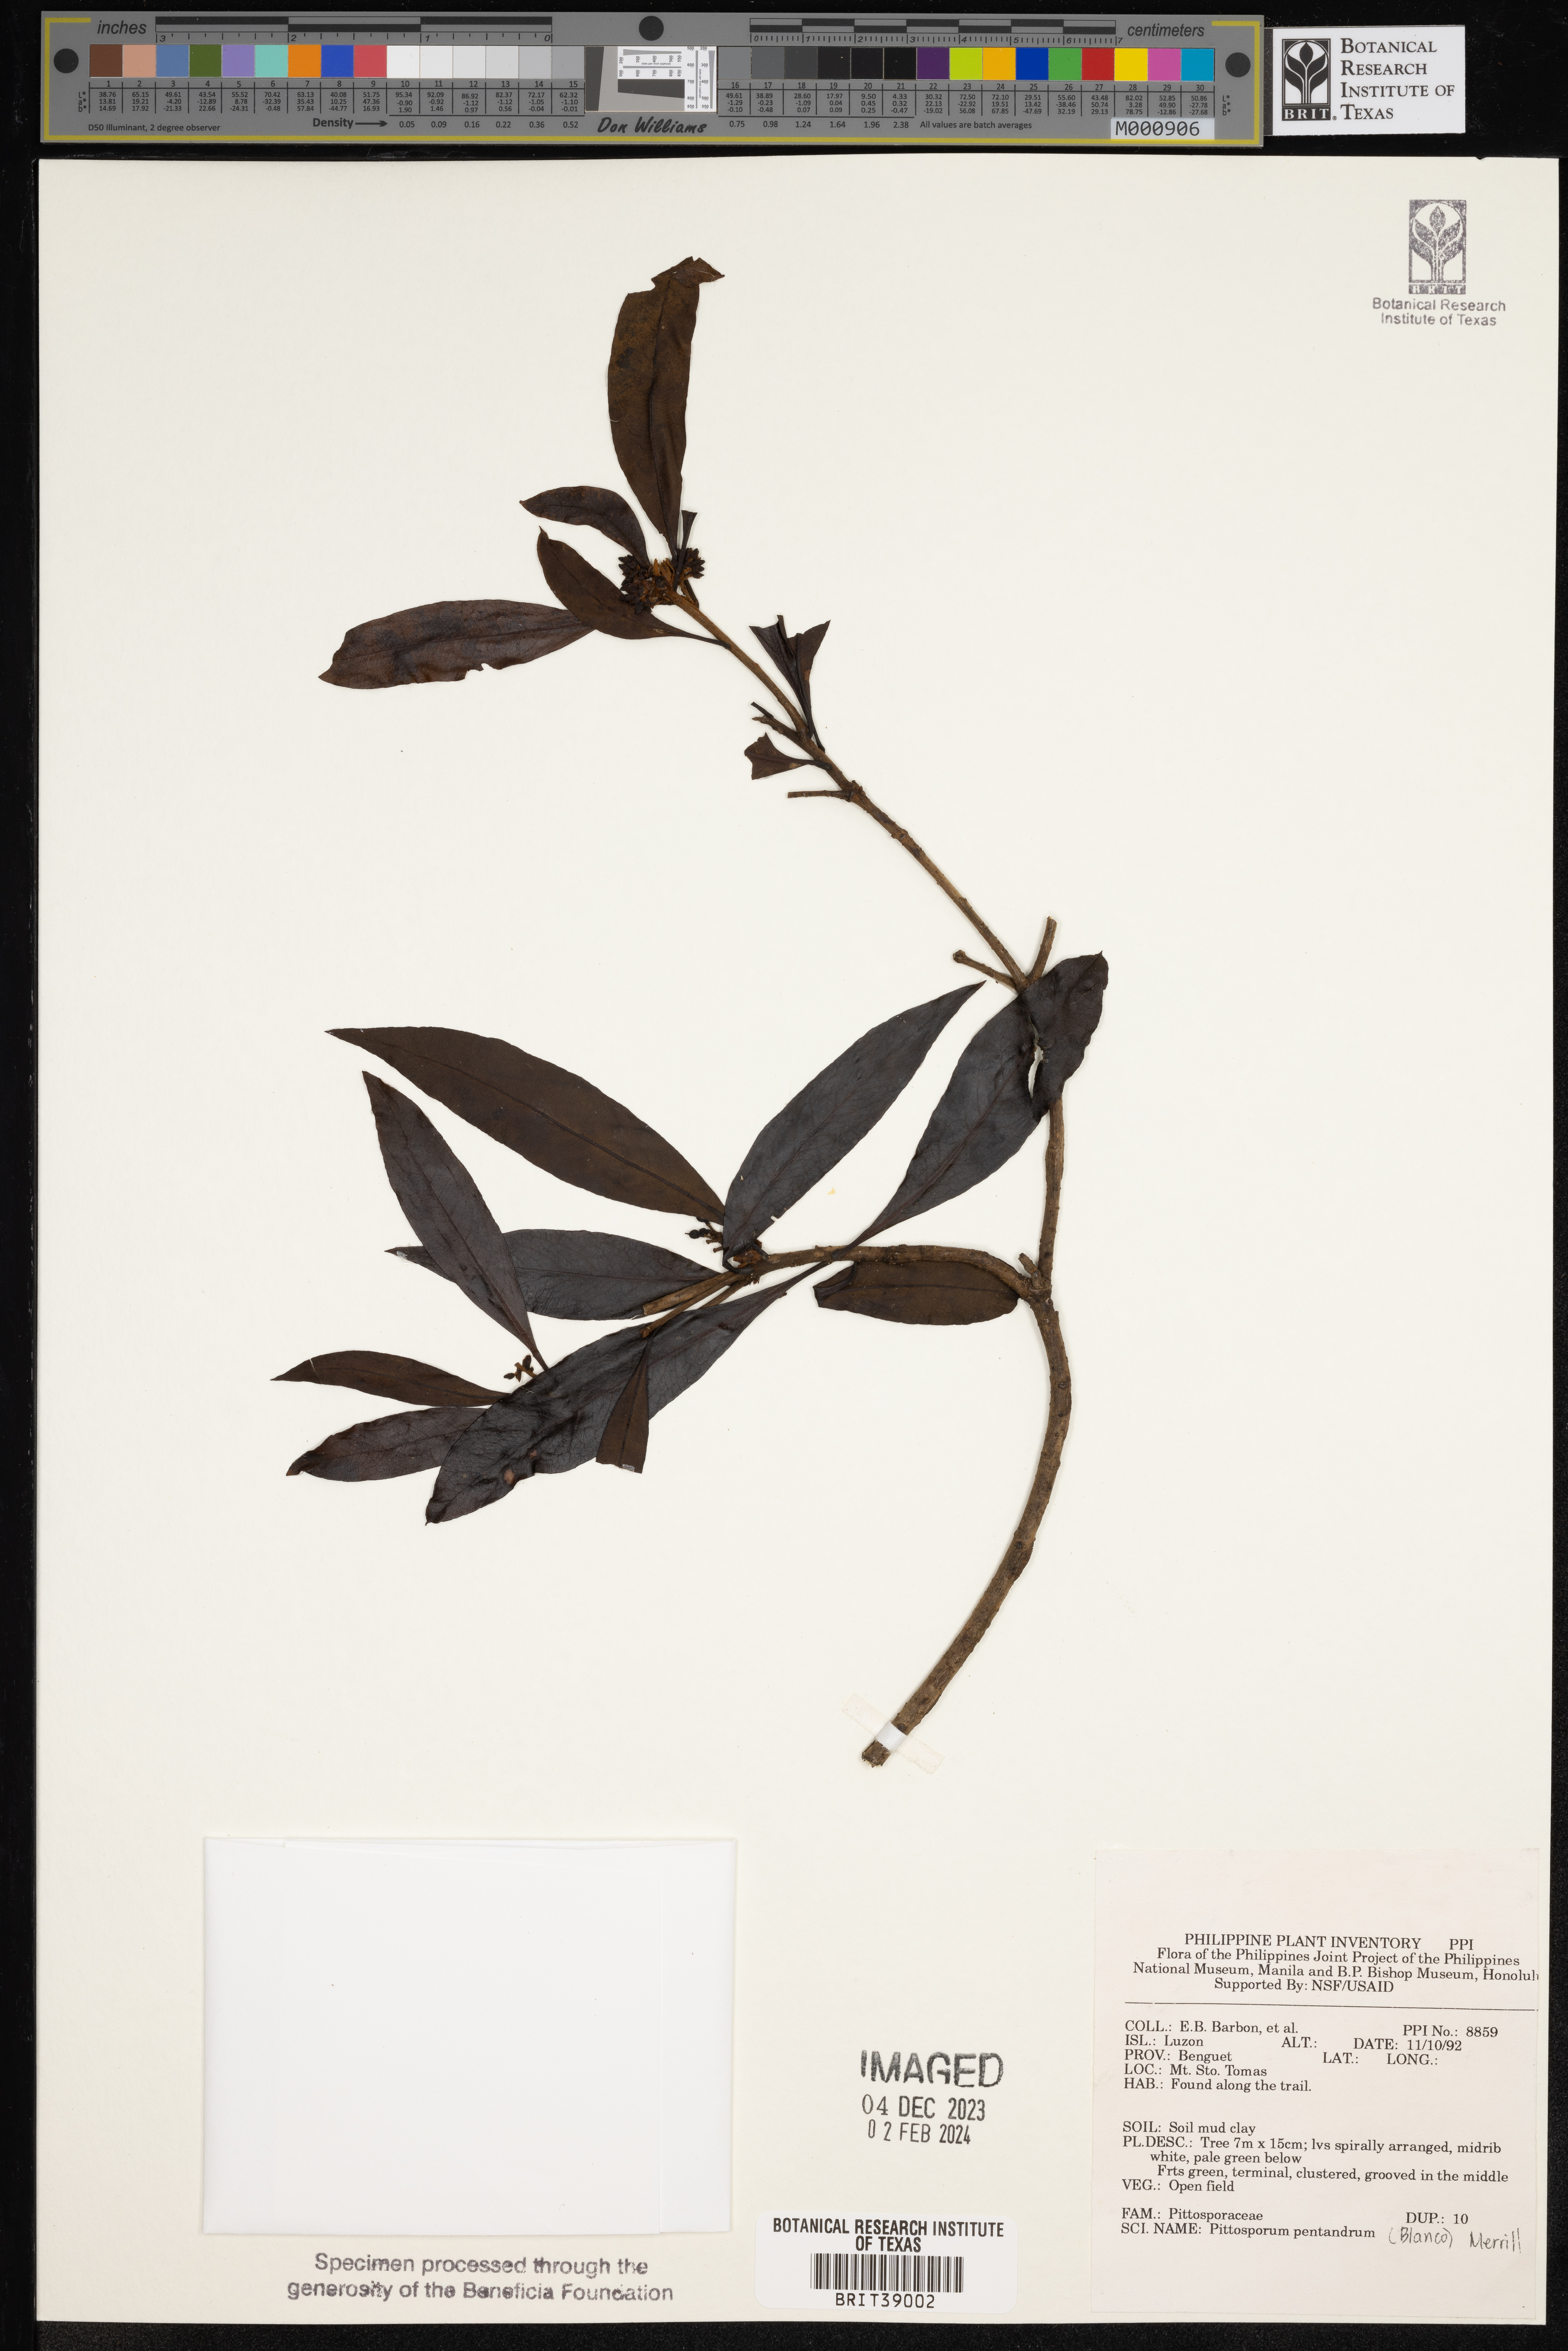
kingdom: Plantae
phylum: Tracheophyta
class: Magnoliopsida
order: Apiales
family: Pittosporaceae
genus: Pittosporum
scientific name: Pittosporum pentandrum
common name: Taiwanese cheesewood
